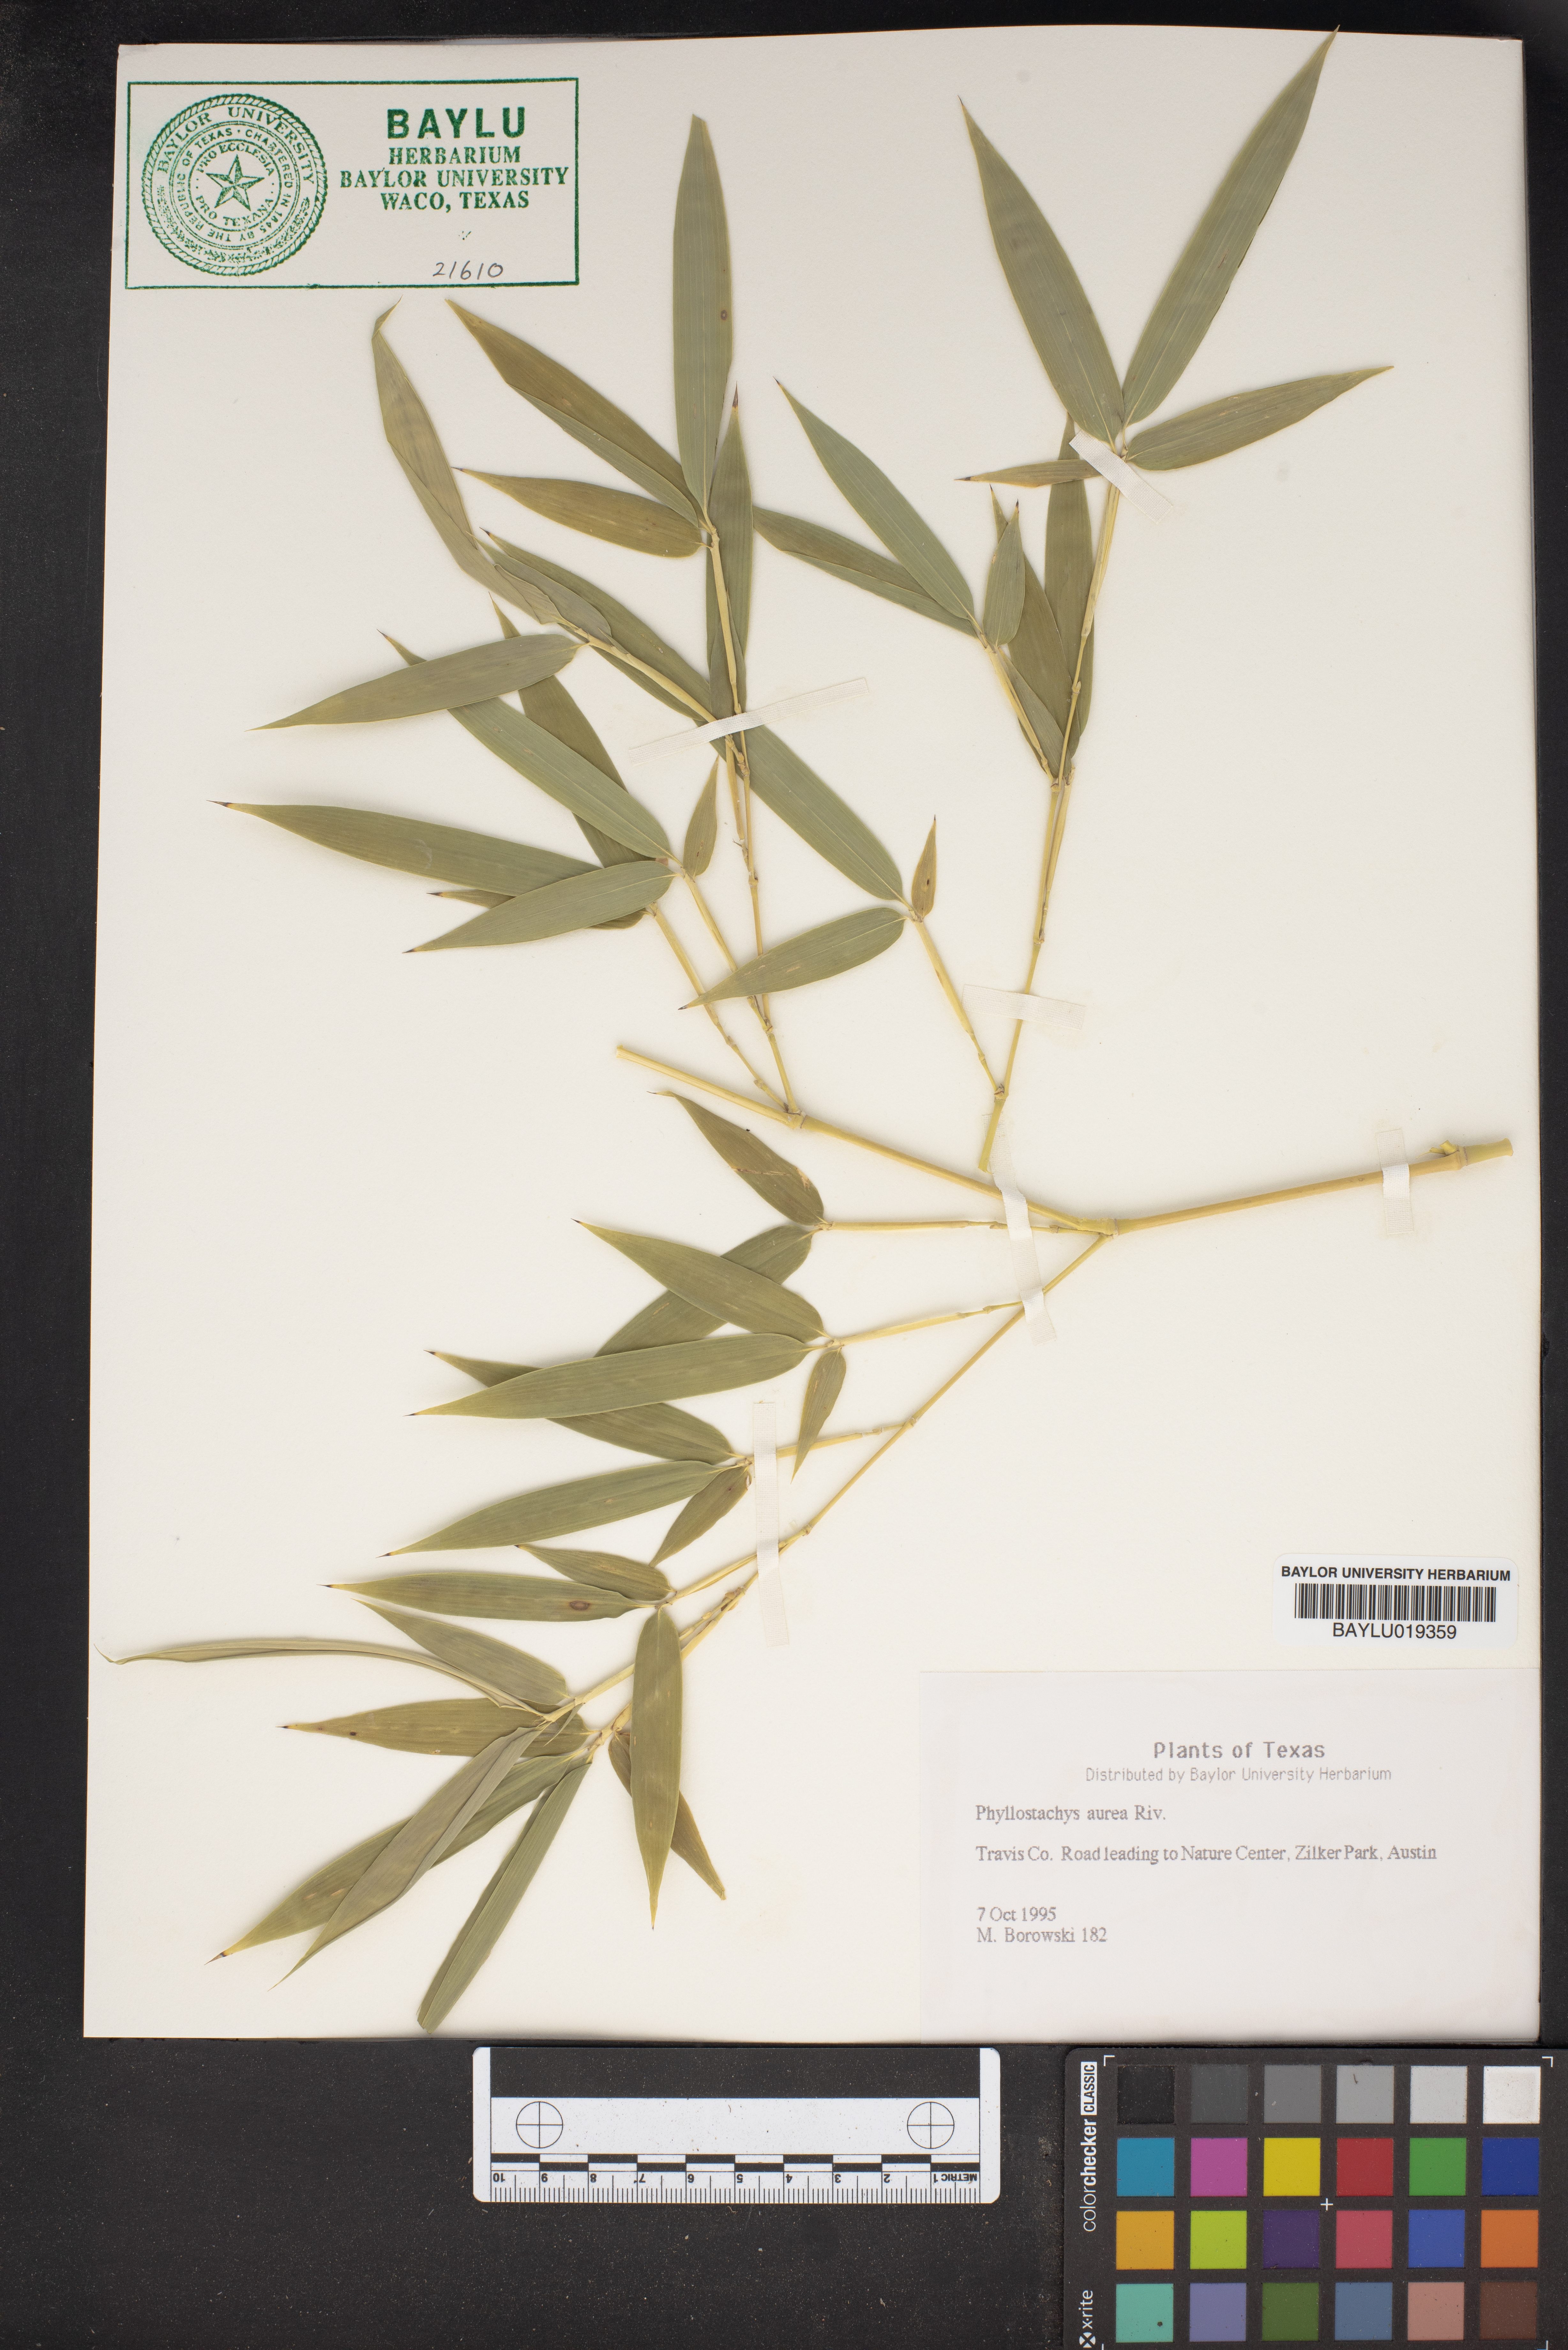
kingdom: Plantae
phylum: Tracheophyta
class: Liliopsida
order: Poales
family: Poaceae
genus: Phyllostachys
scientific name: Phyllostachys aurea
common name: Golden bamboo
